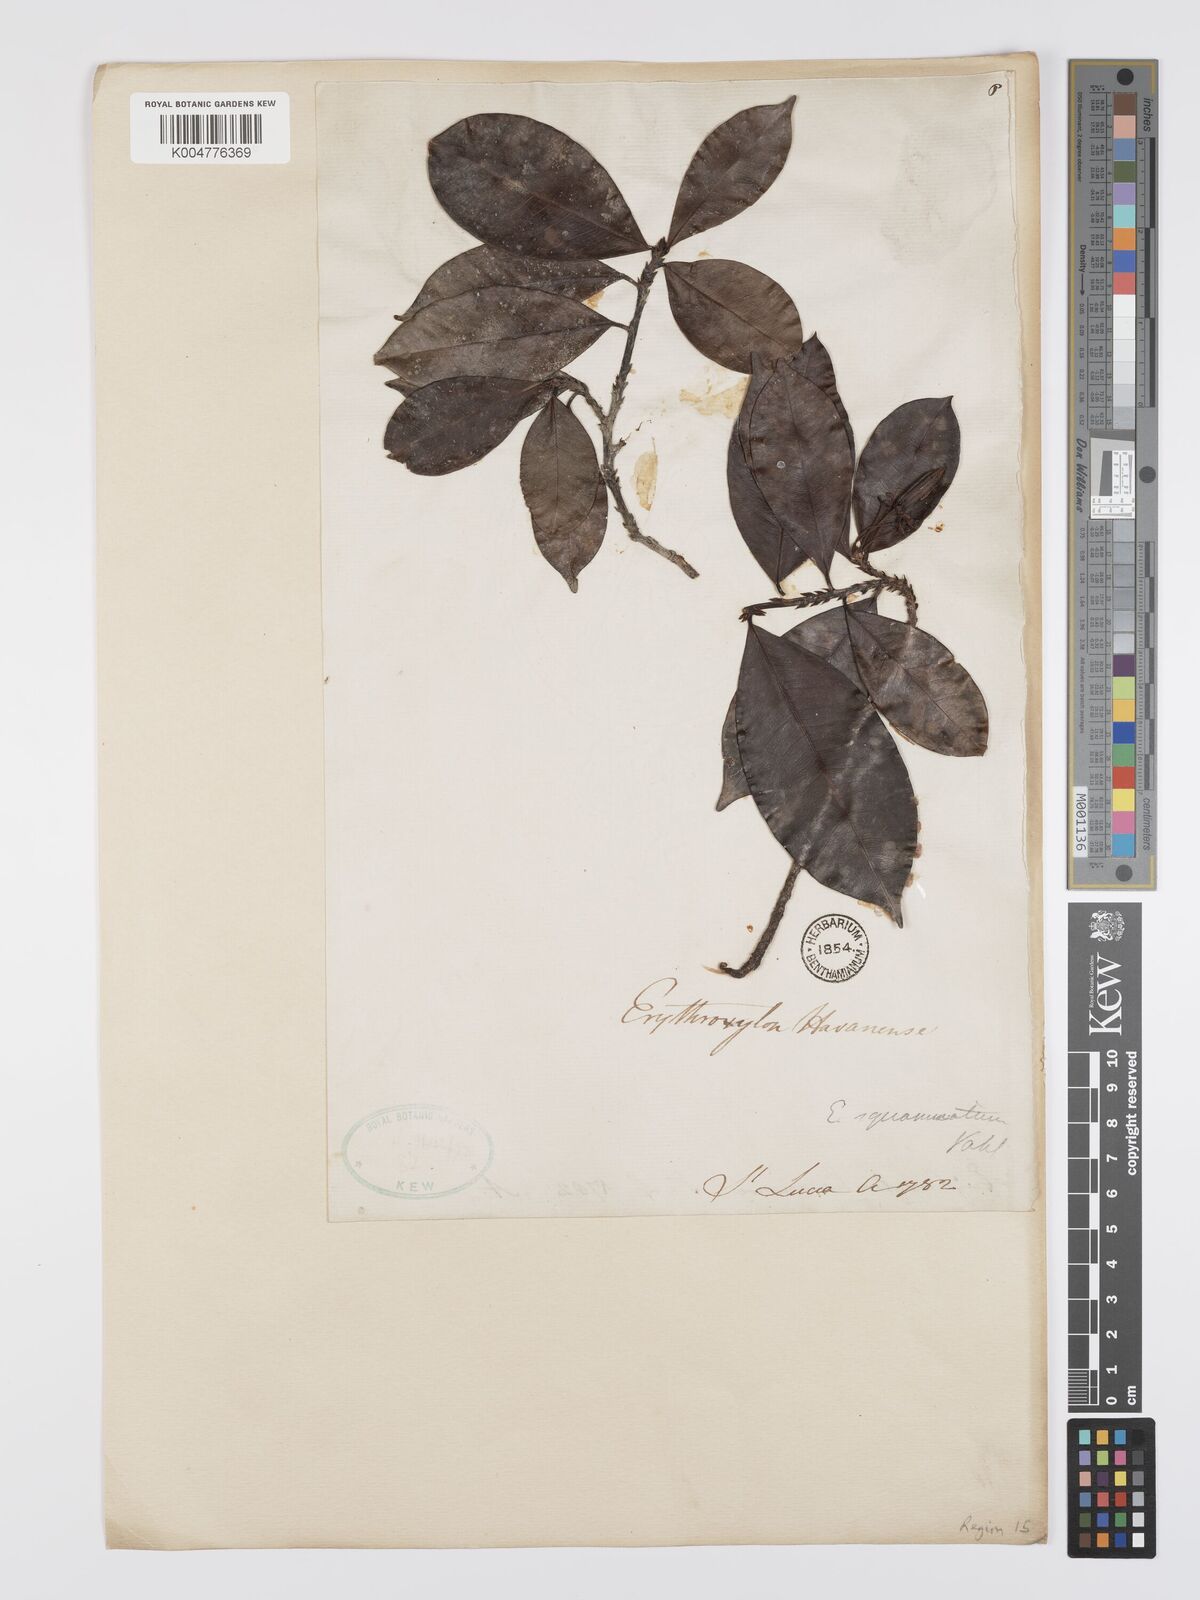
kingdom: Plantae
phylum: Tracheophyta
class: Magnoliopsida
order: Malpighiales
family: Erythroxylaceae
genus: Erythroxylum
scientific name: Erythroxylum squamatum
